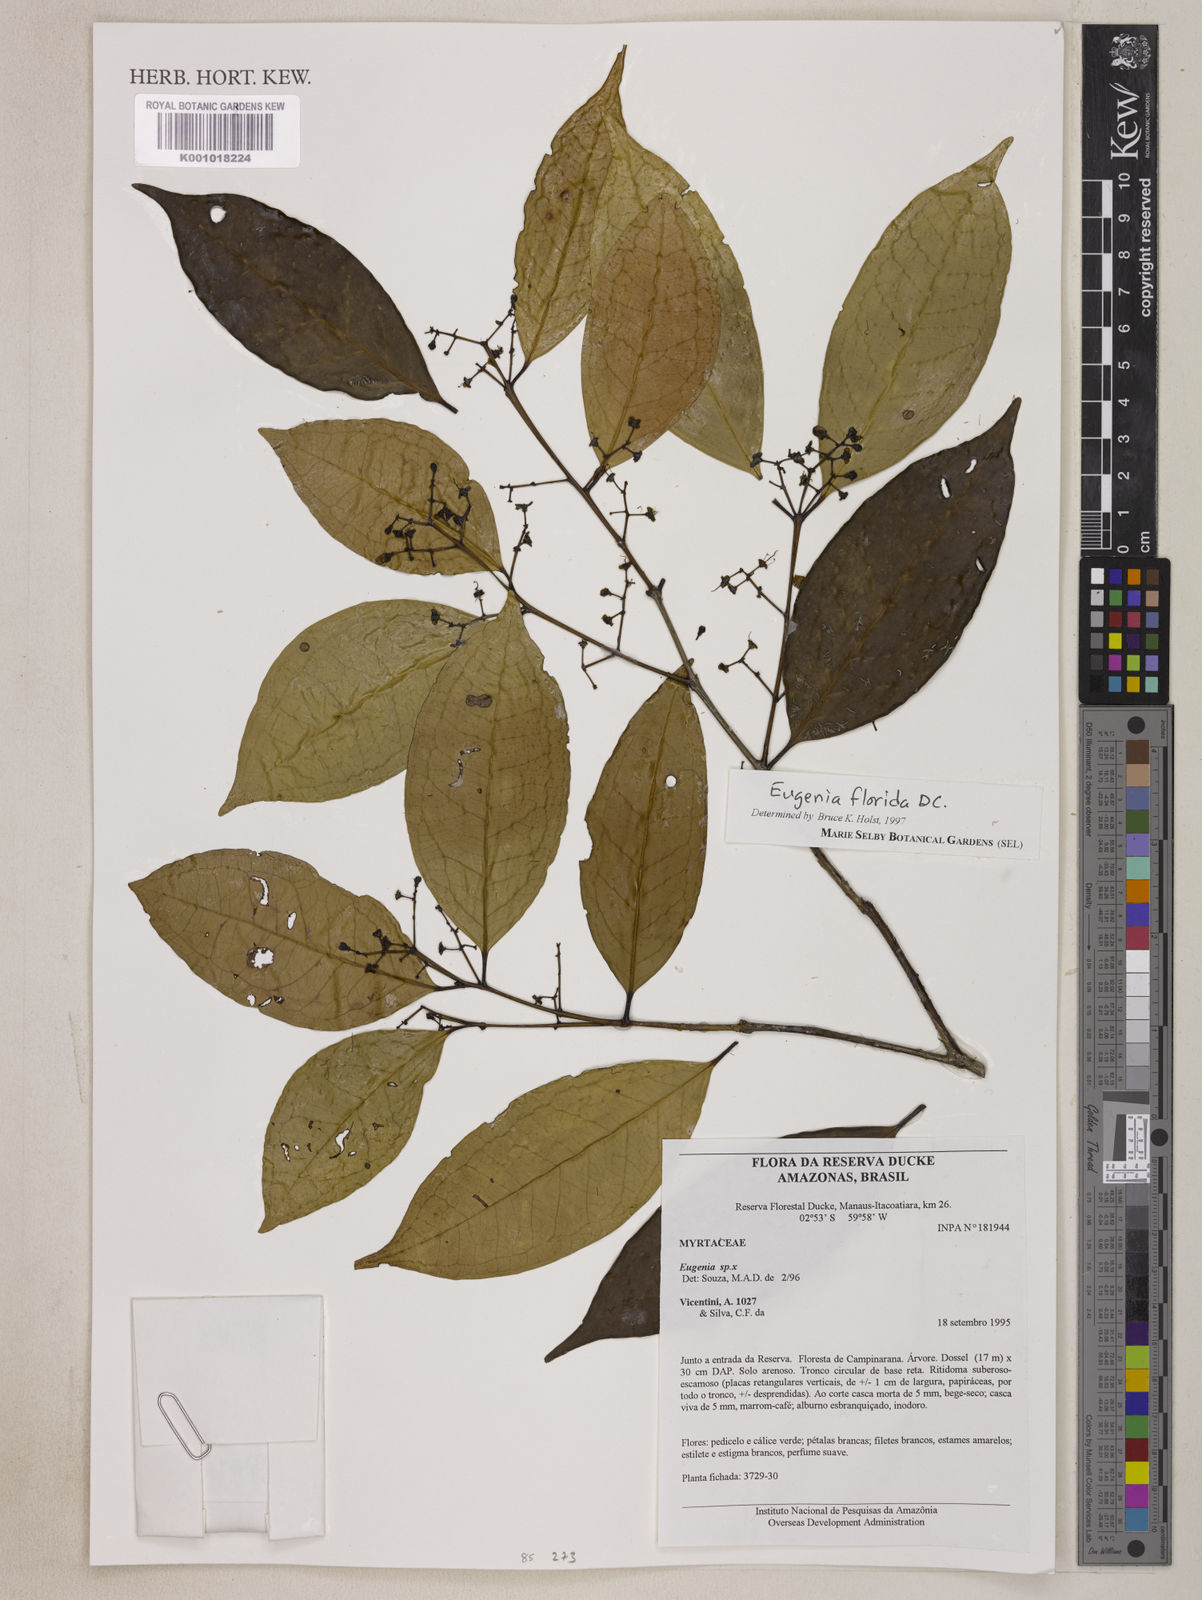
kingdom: Plantae
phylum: Tracheophyta
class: Magnoliopsida
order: Myrtales
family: Myrtaceae
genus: Eugenia
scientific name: Eugenia florida
